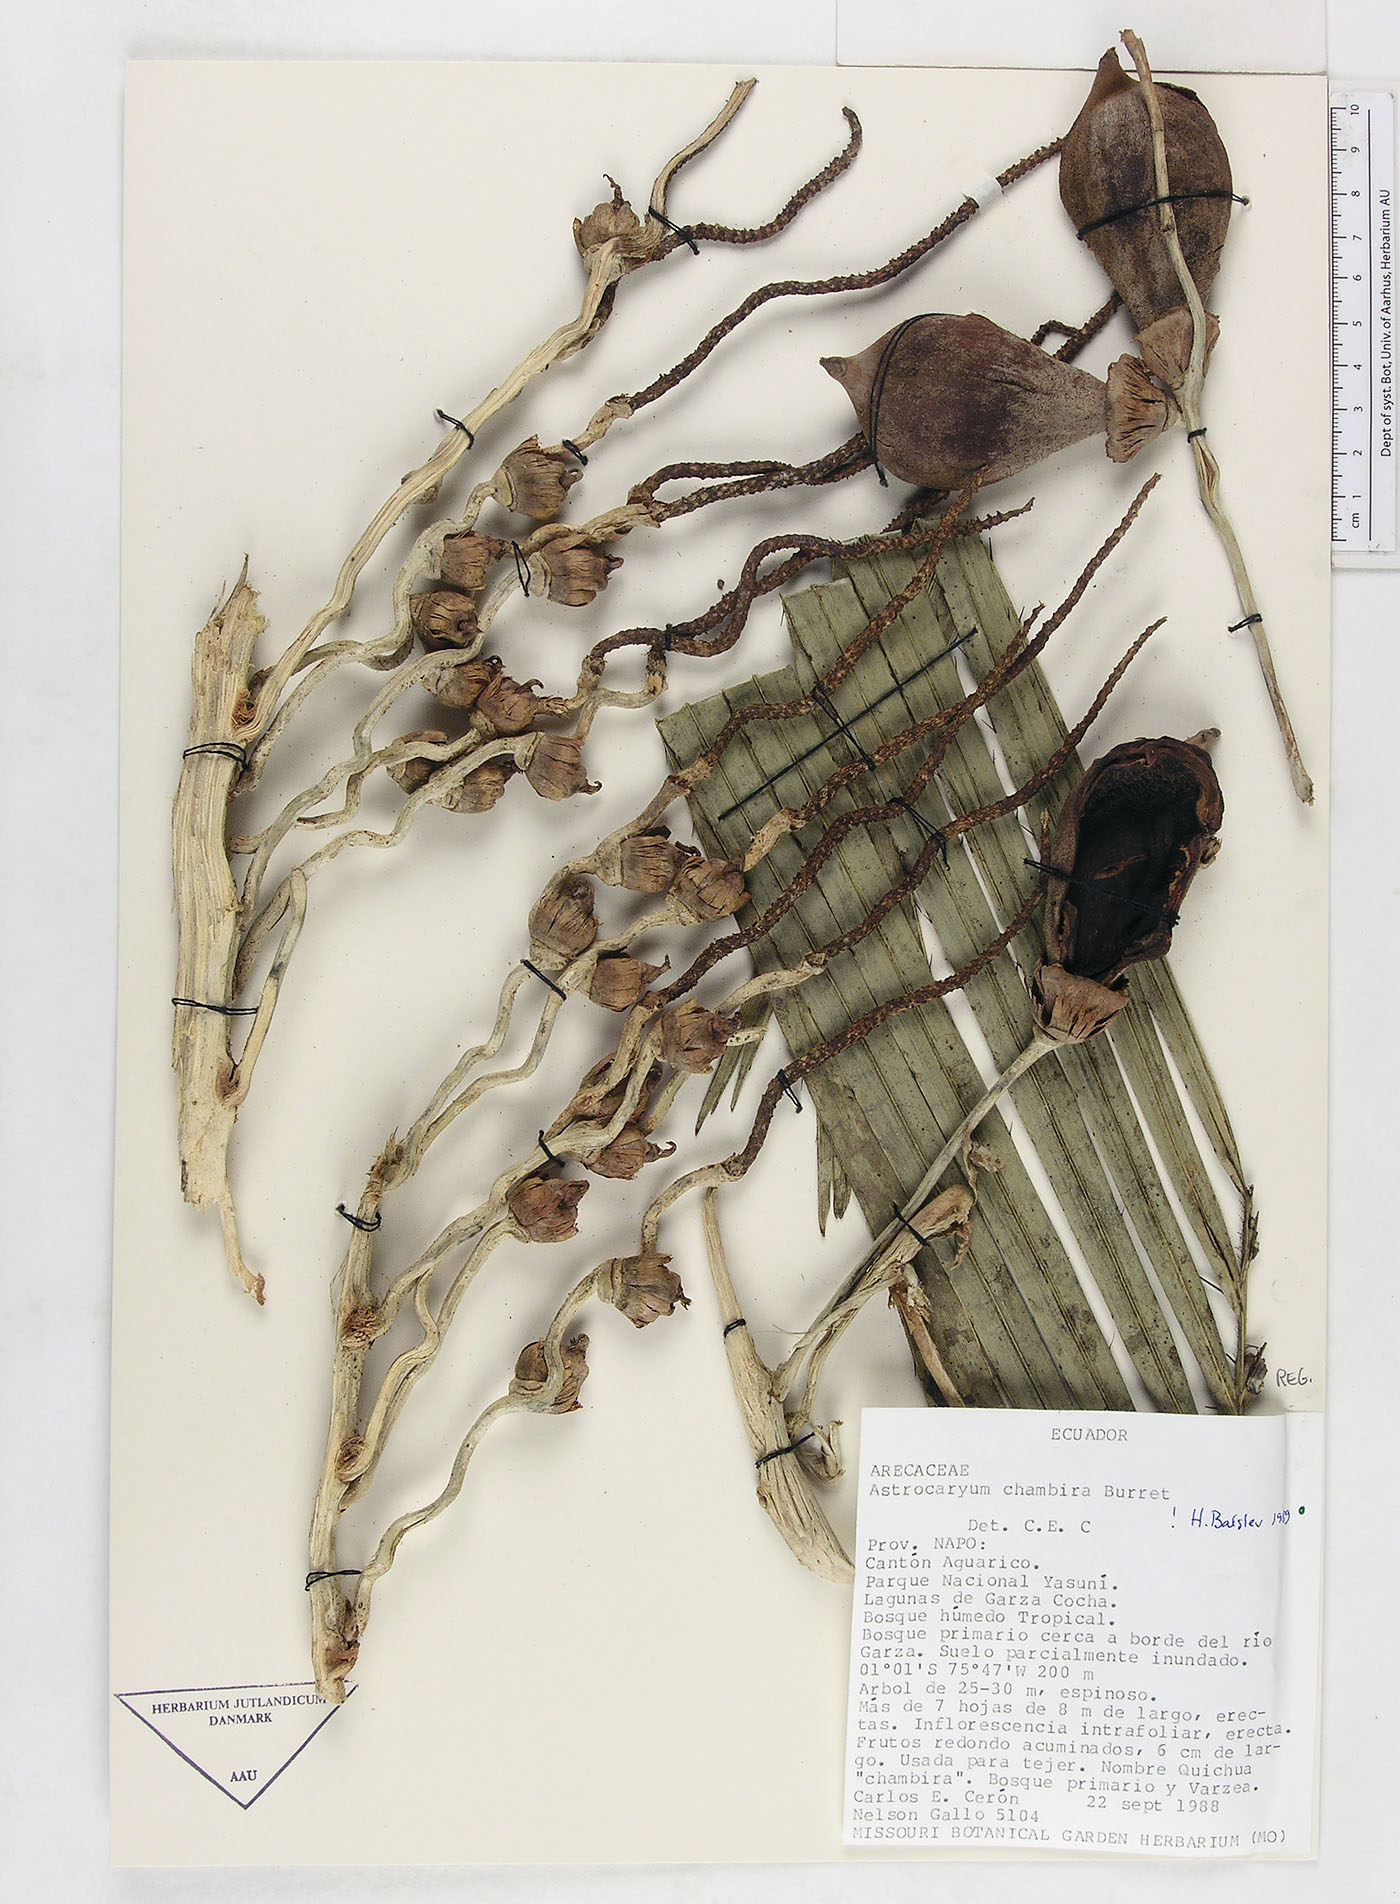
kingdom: Plantae
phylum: Tracheophyta
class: Liliopsida
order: Arecales
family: Arecaceae
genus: Astrocaryum
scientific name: Astrocaryum chambira
